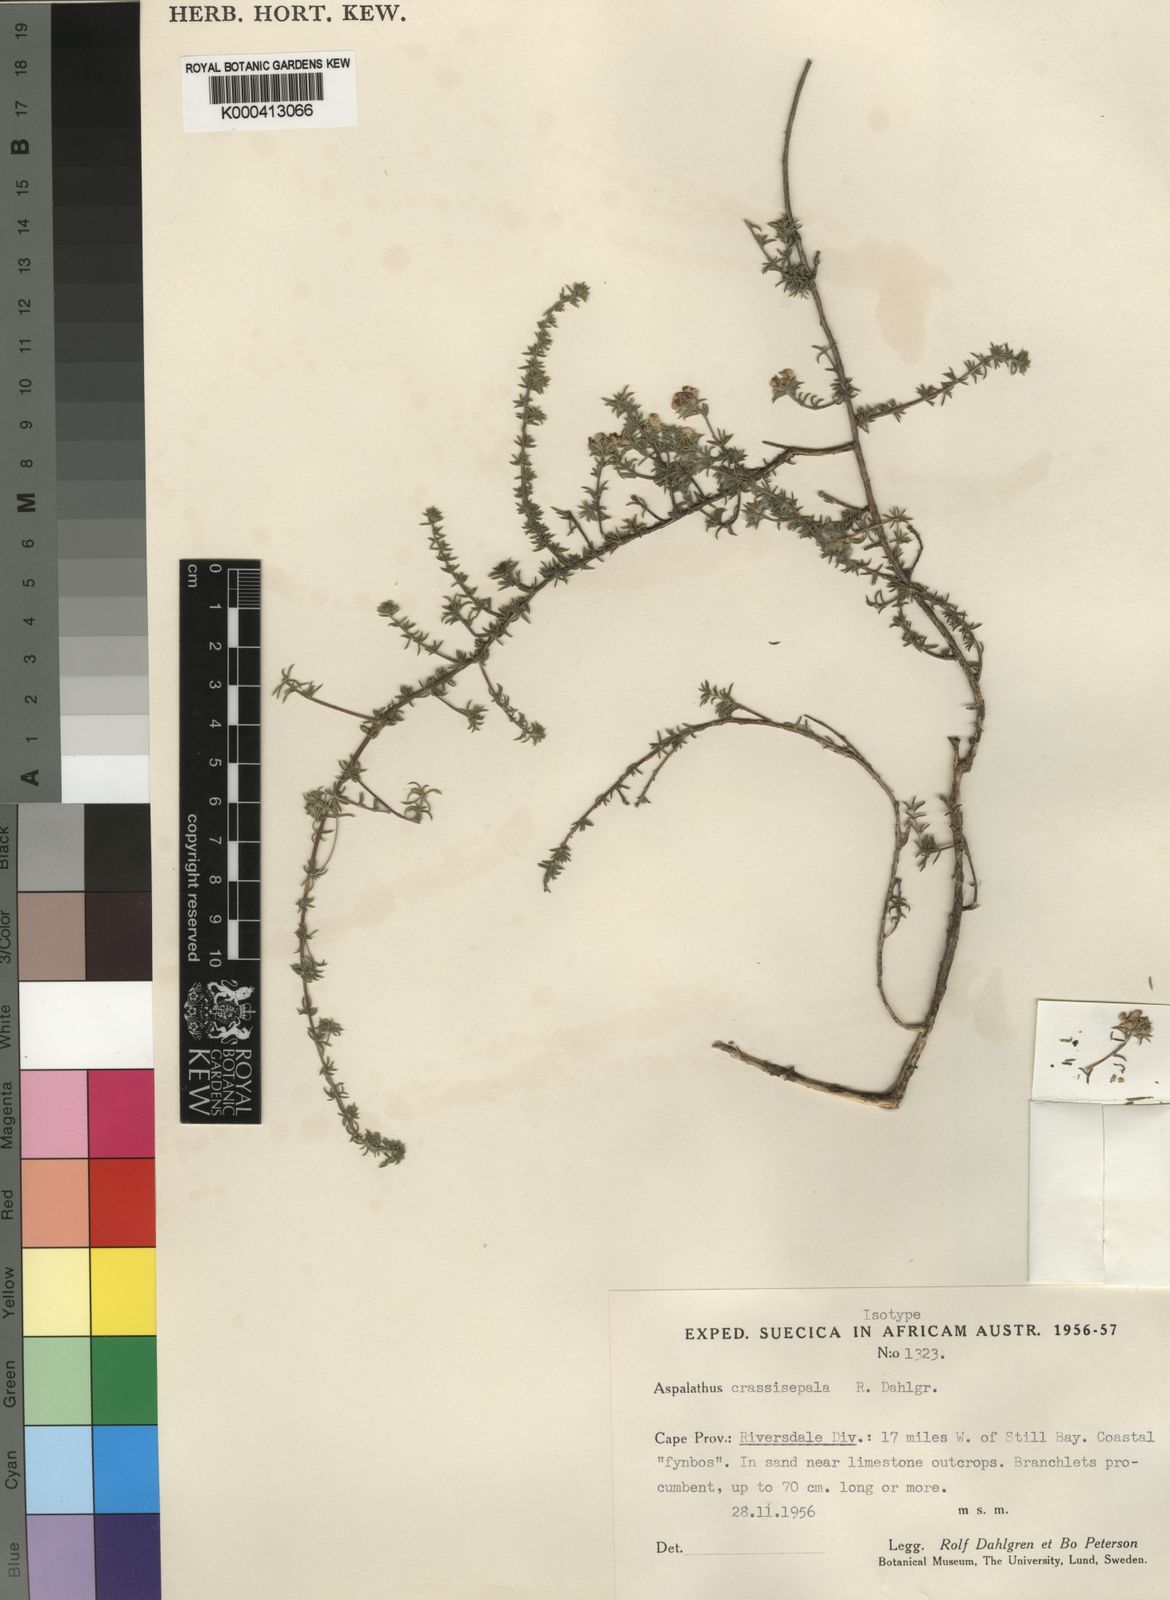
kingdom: Plantae
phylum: Tracheophyta
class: Magnoliopsida
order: Fabales
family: Fabaceae
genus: Aspalathus
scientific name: Aspalathus crassisepala
